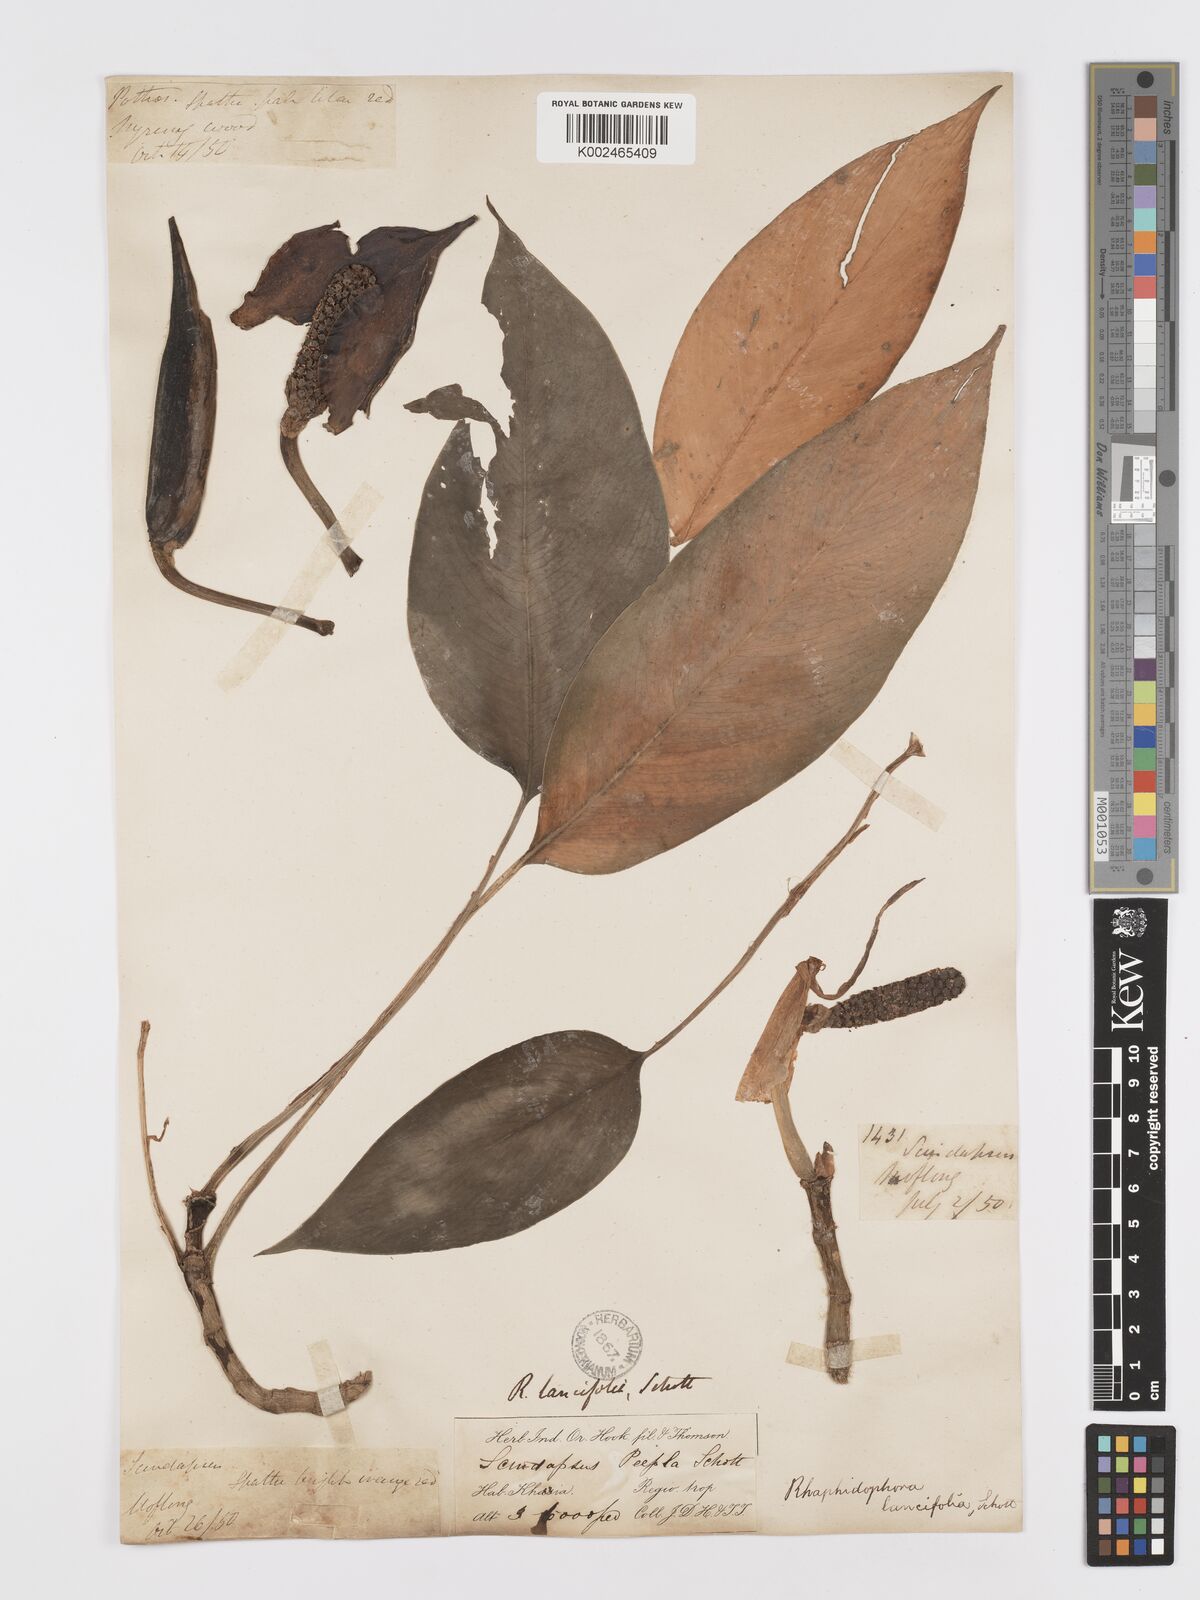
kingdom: Plantae
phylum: Tracheophyta
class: Liliopsida
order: Alismatales
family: Araceae
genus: Rhaphidophora
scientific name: Rhaphidophora peepla
